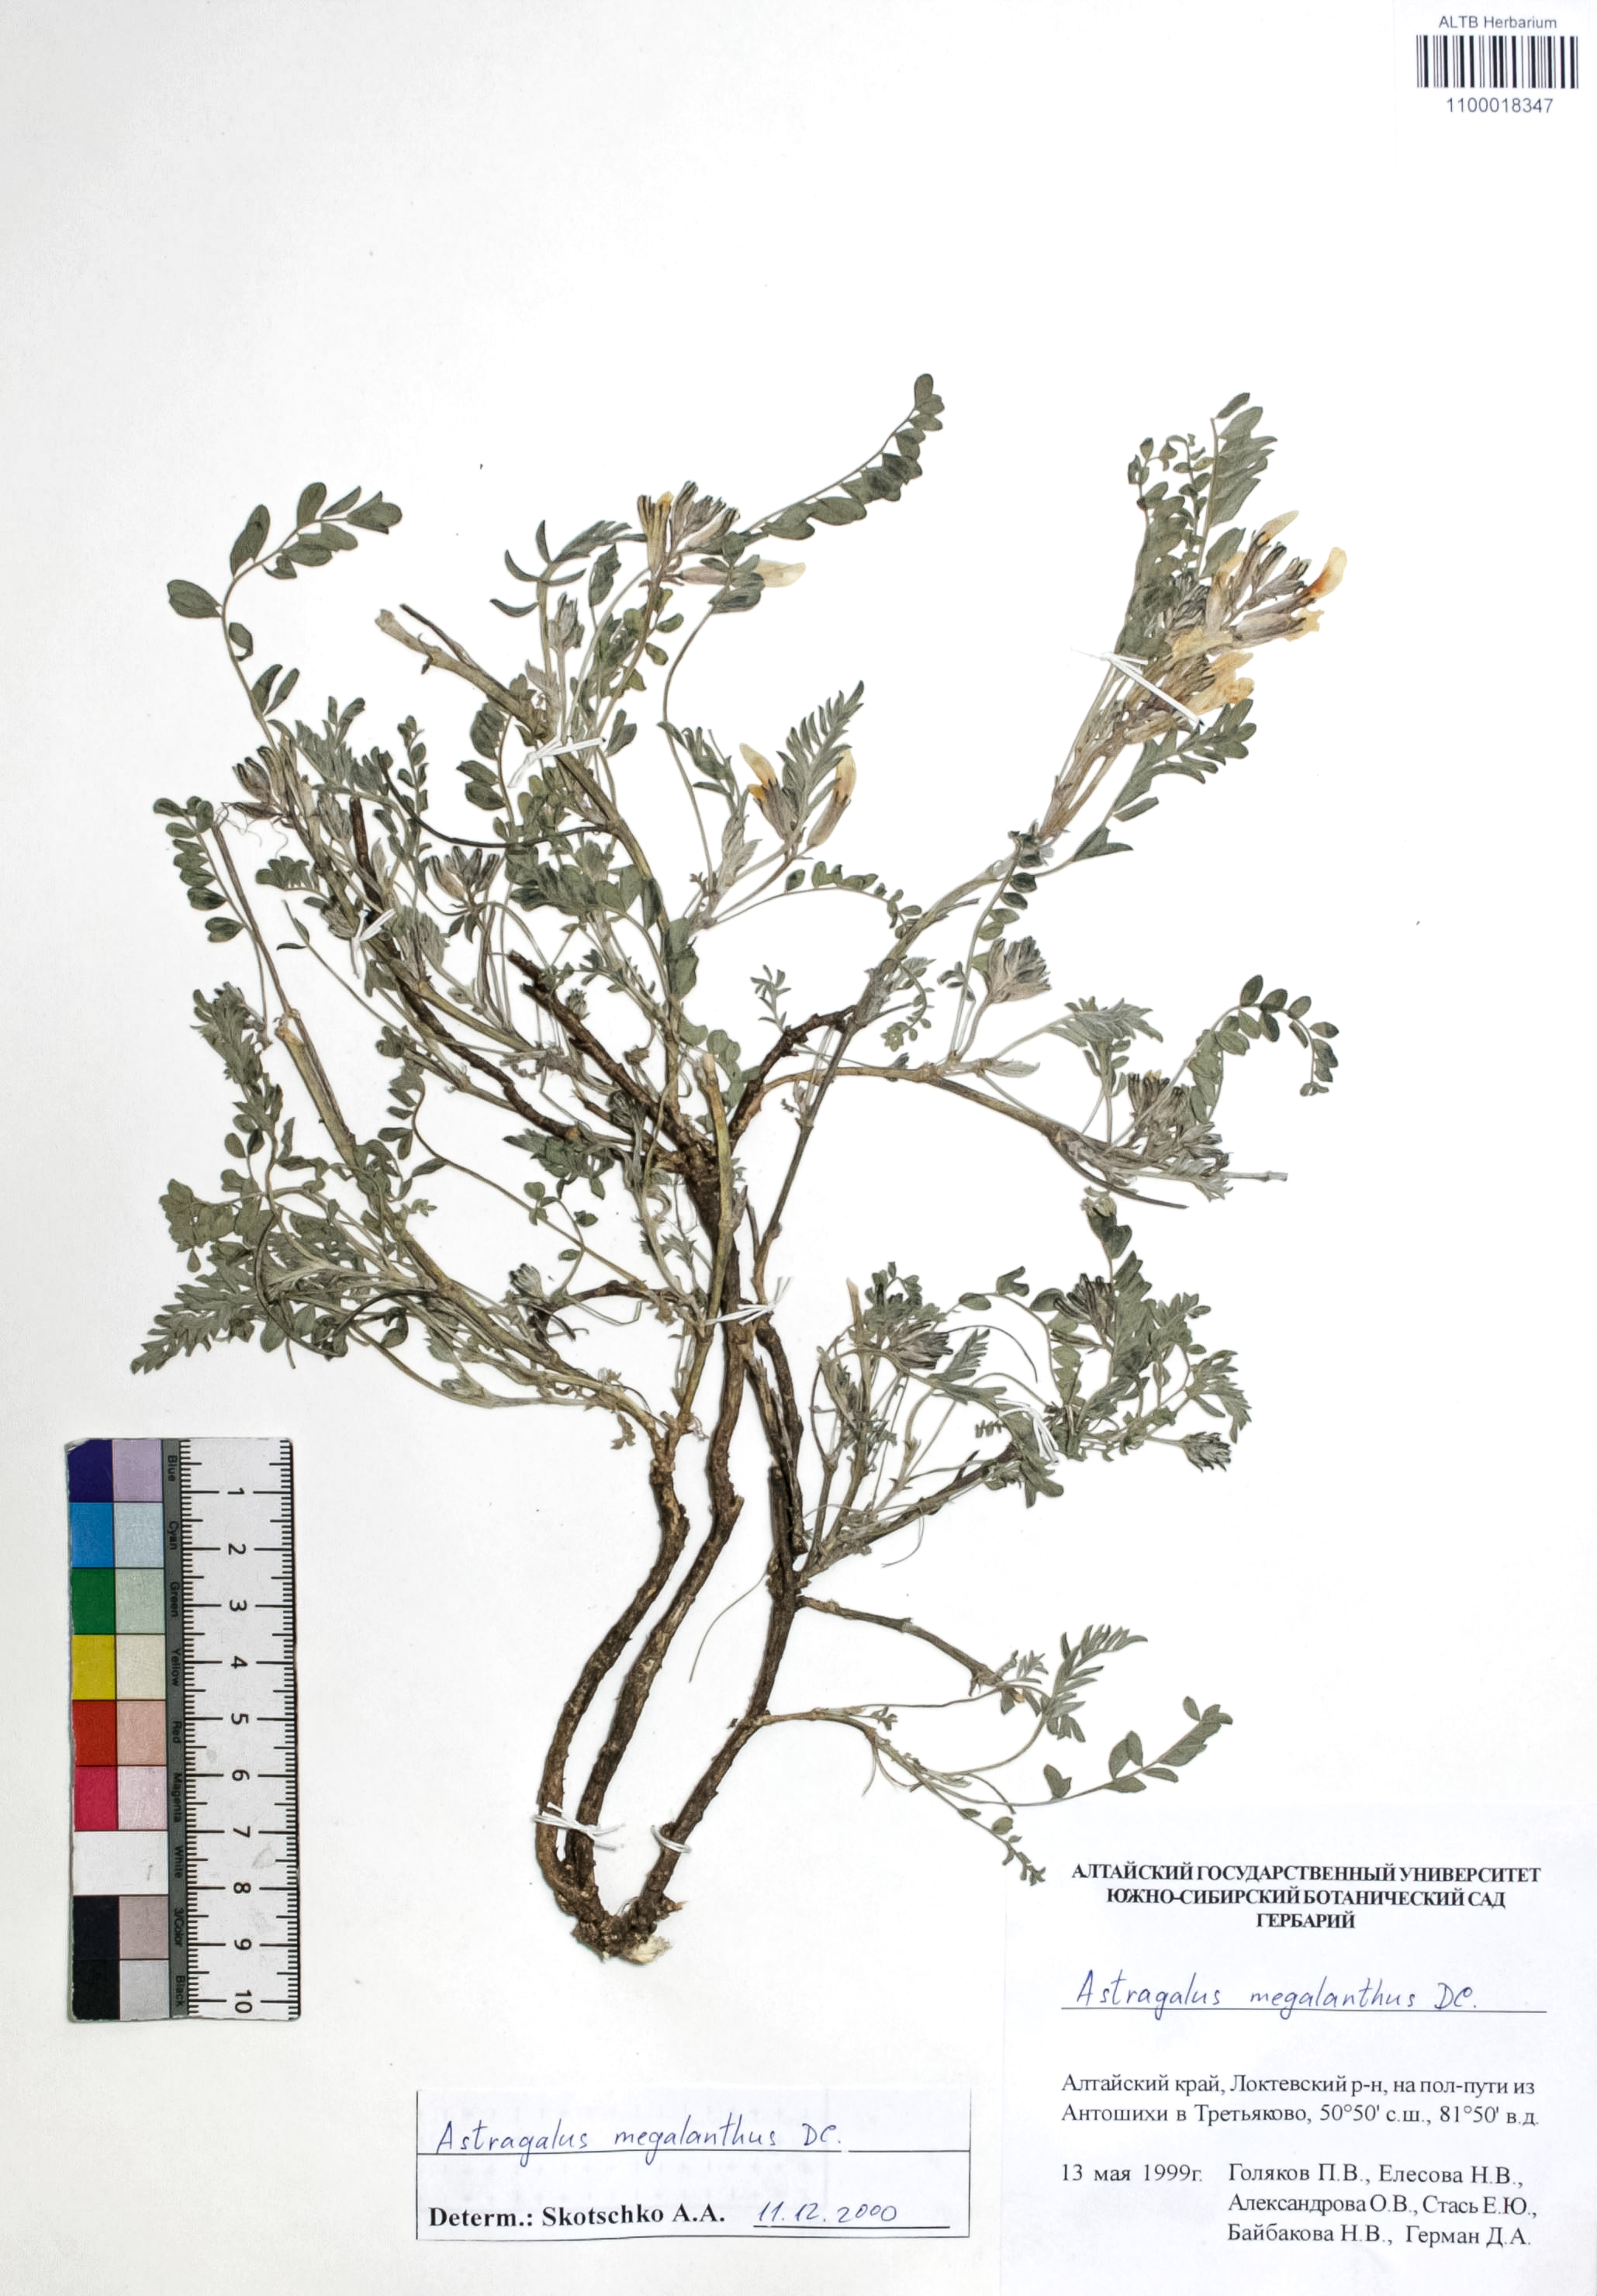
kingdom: Plantae
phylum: Tracheophyta
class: Magnoliopsida
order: Fabales
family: Fabaceae
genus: Astragalus
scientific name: Astragalus leptostachys
